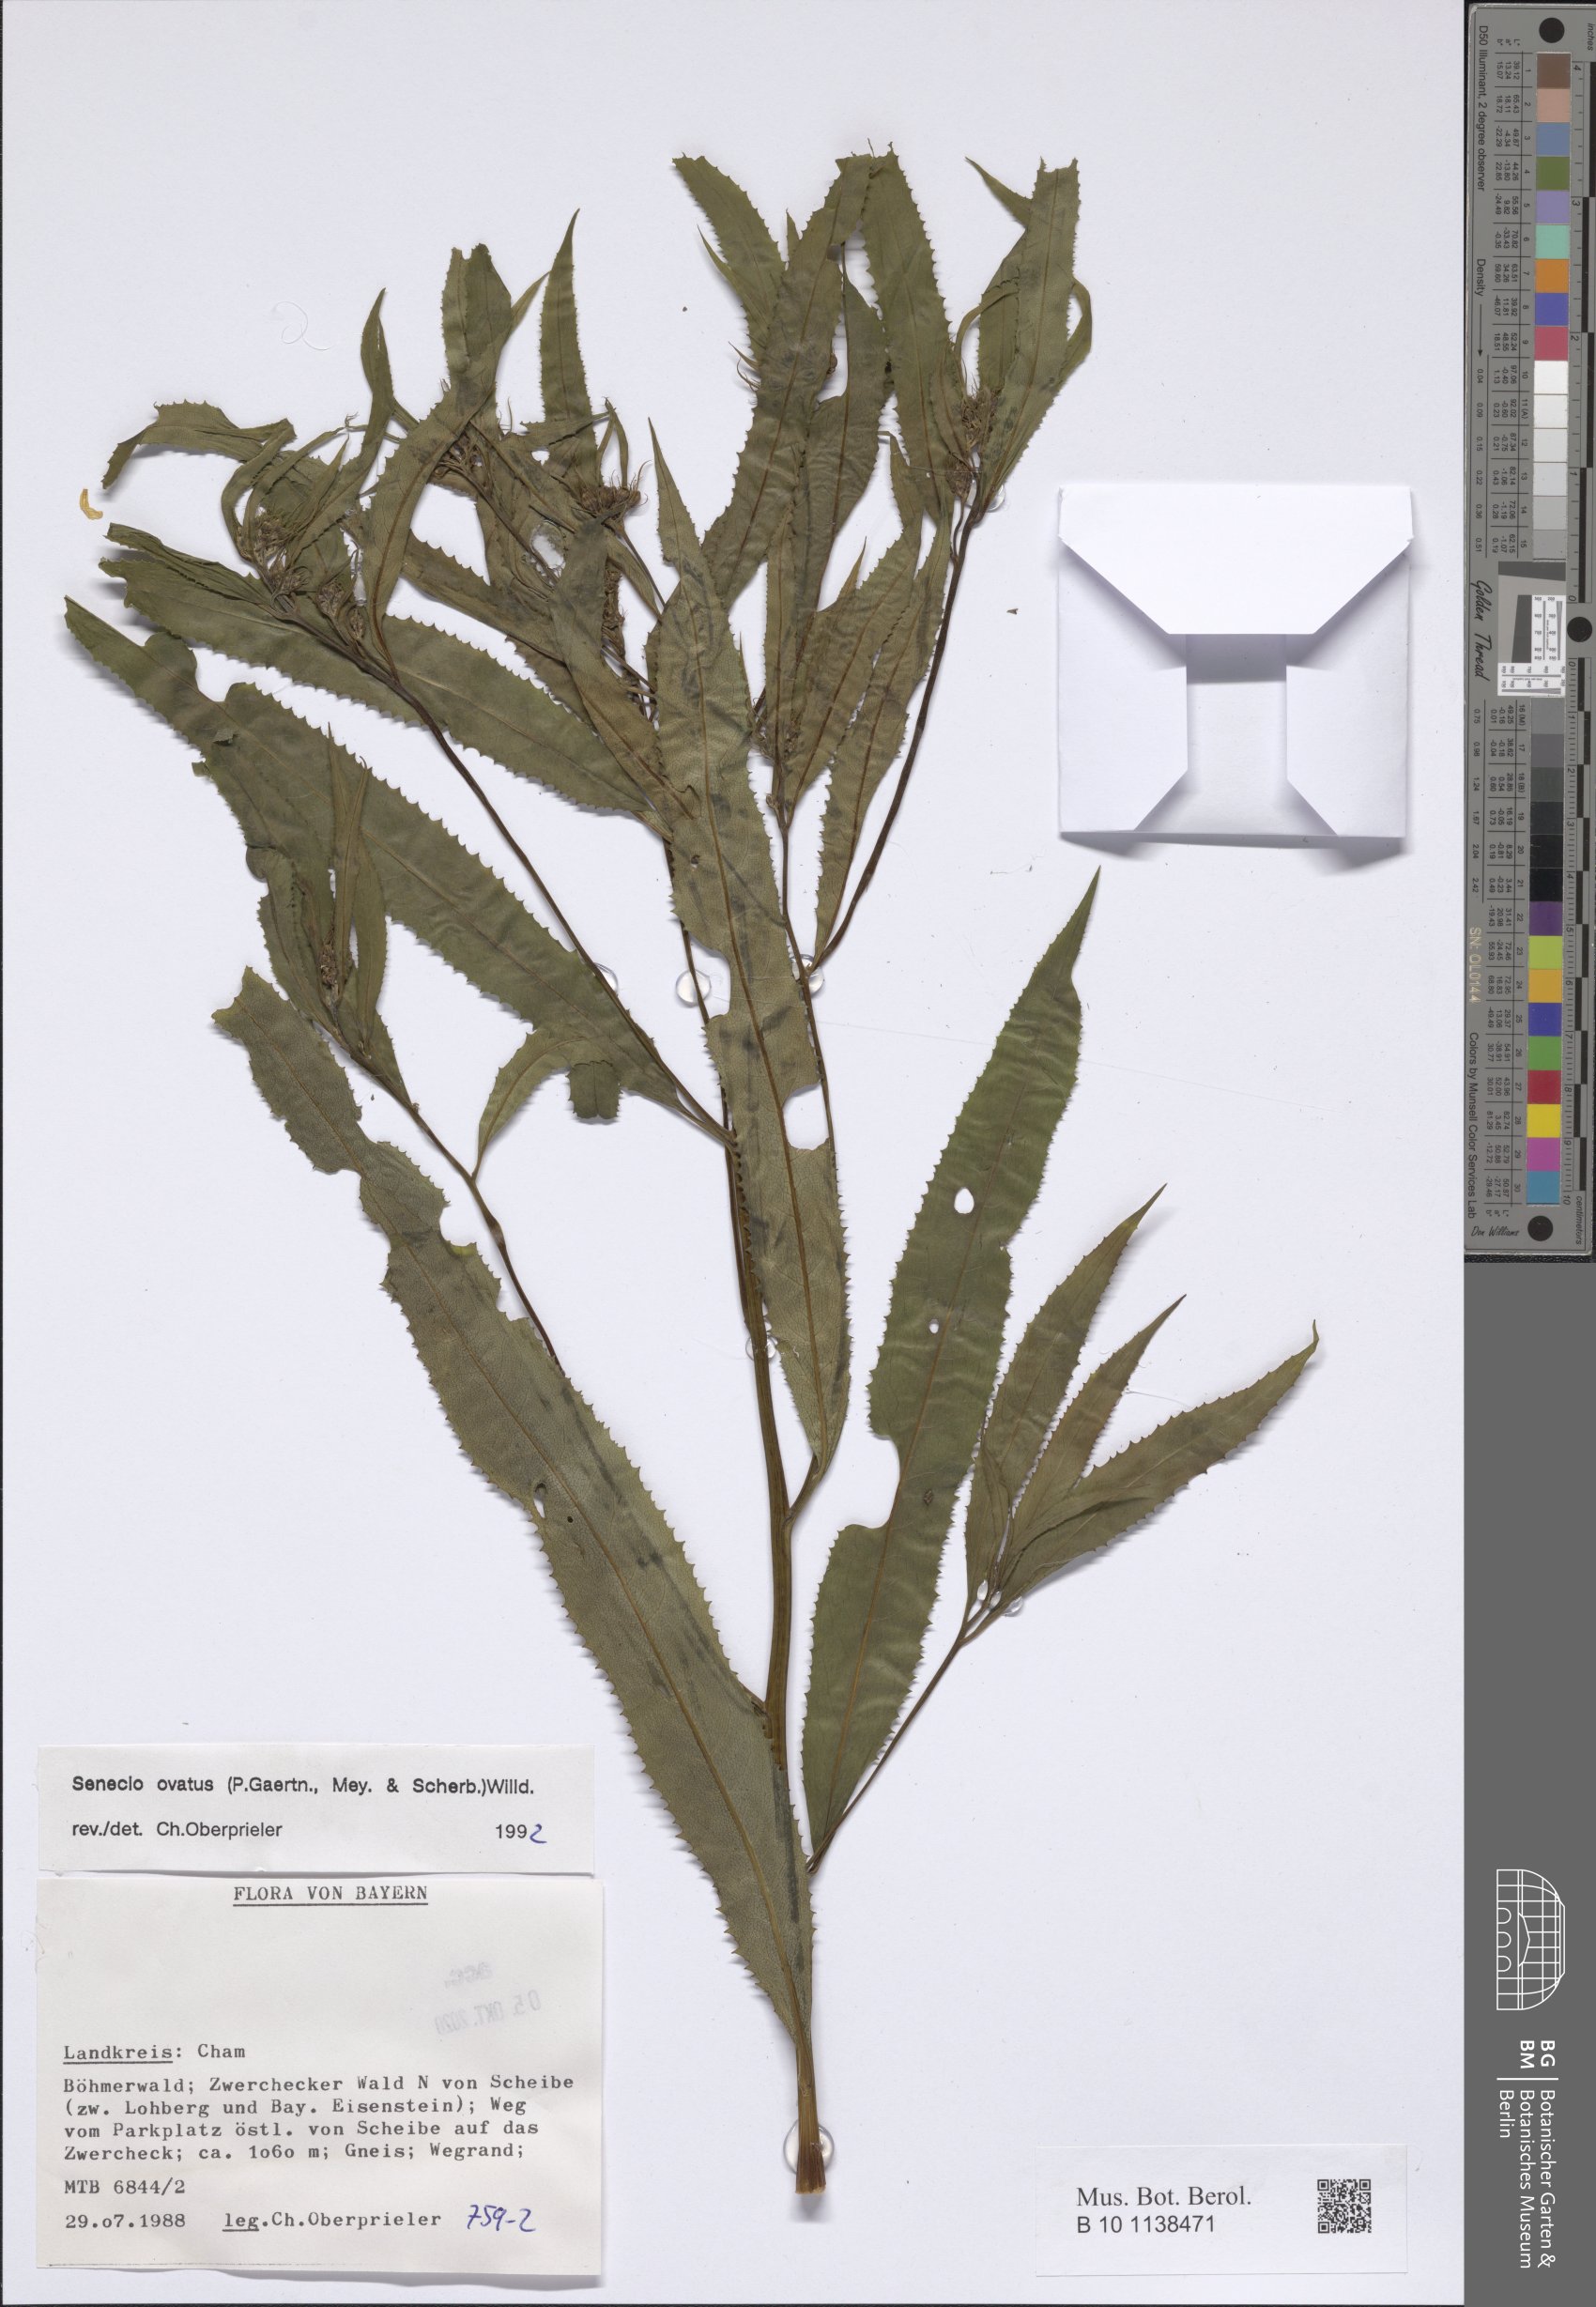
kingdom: Plantae
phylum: Tracheophyta
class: Magnoliopsida
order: Asterales
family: Asteraceae
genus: Senecio
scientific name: Senecio ovatus
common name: Wood ragwort
